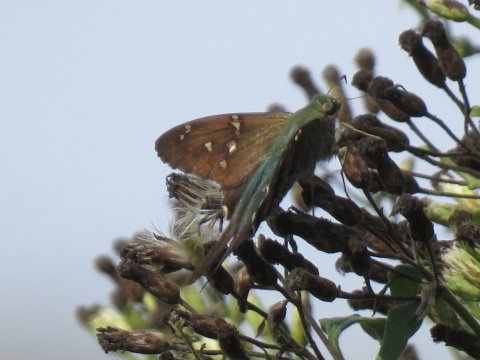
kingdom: Animalia
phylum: Arthropoda
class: Insecta
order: Lepidoptera
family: Hesperiidae
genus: Urbanus
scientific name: Urbanus proteus
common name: Long-tailed Skipper
